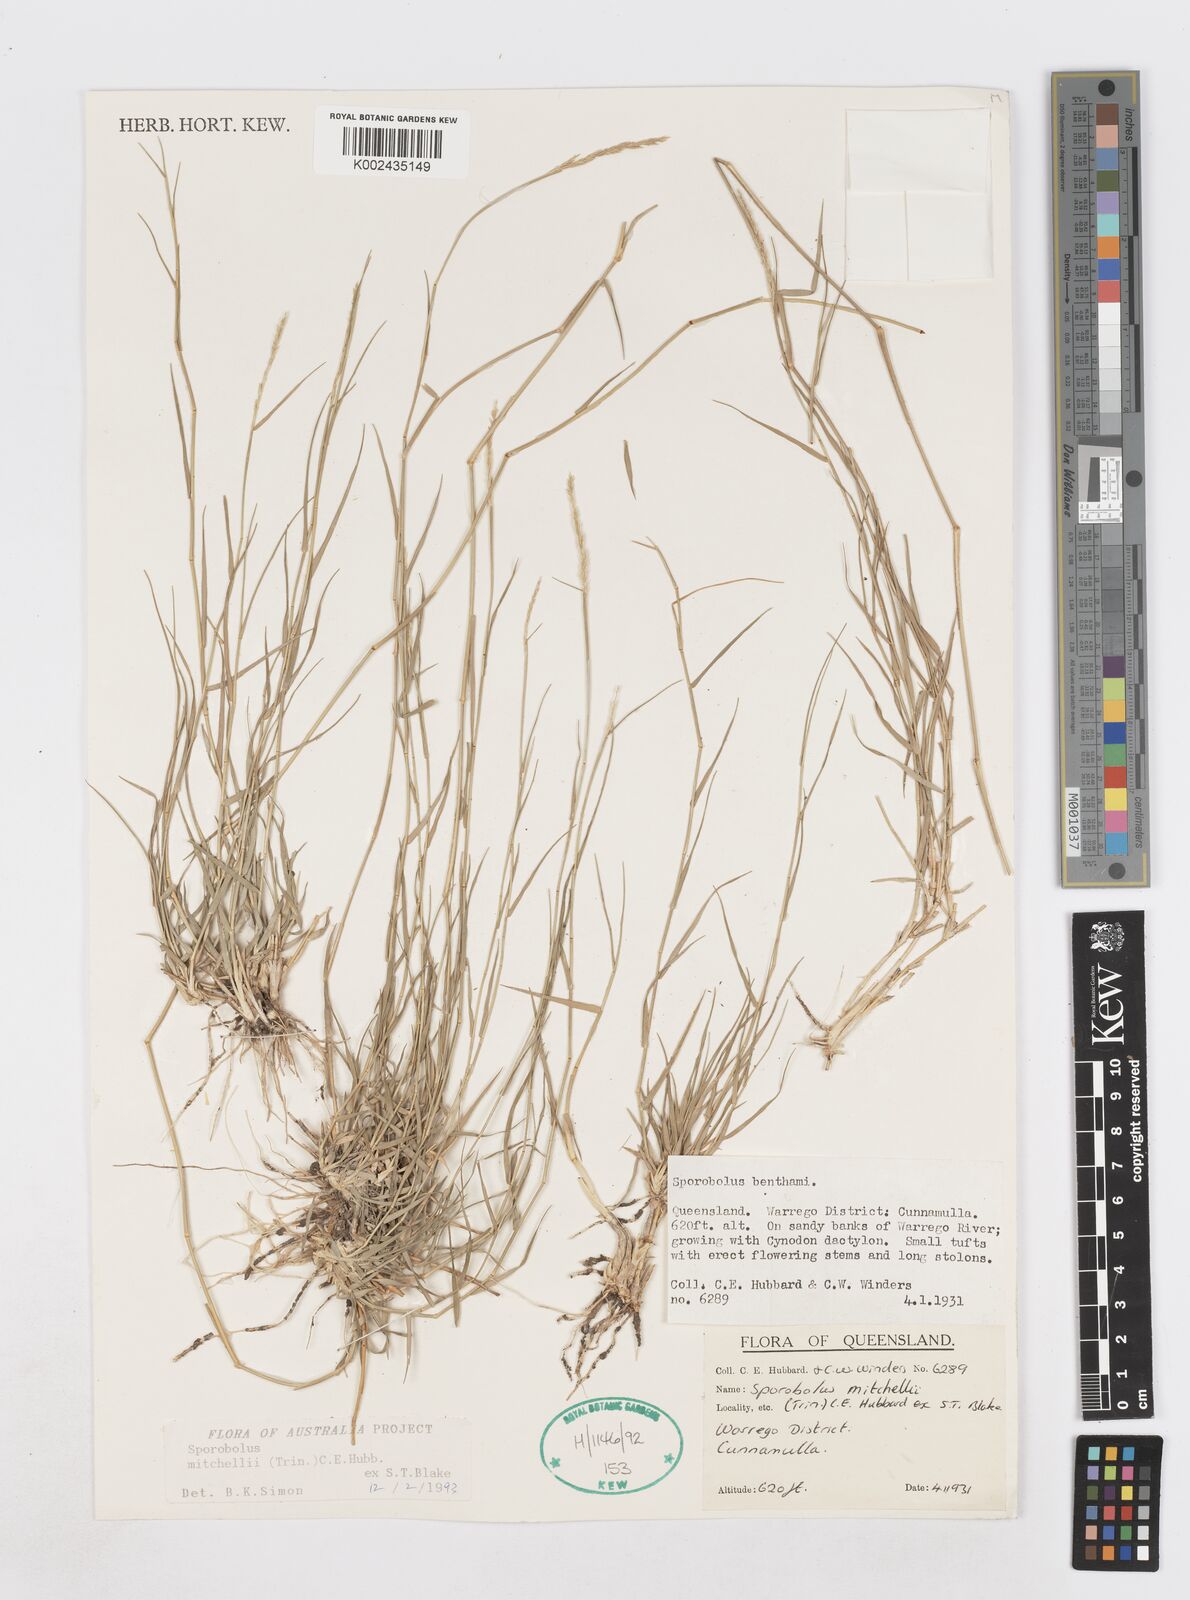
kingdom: Plantae
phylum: Tracheophyta
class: Liliopsida
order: Poales
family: Poaceae
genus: Sporobolus
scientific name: Sporobolus mitchellii
